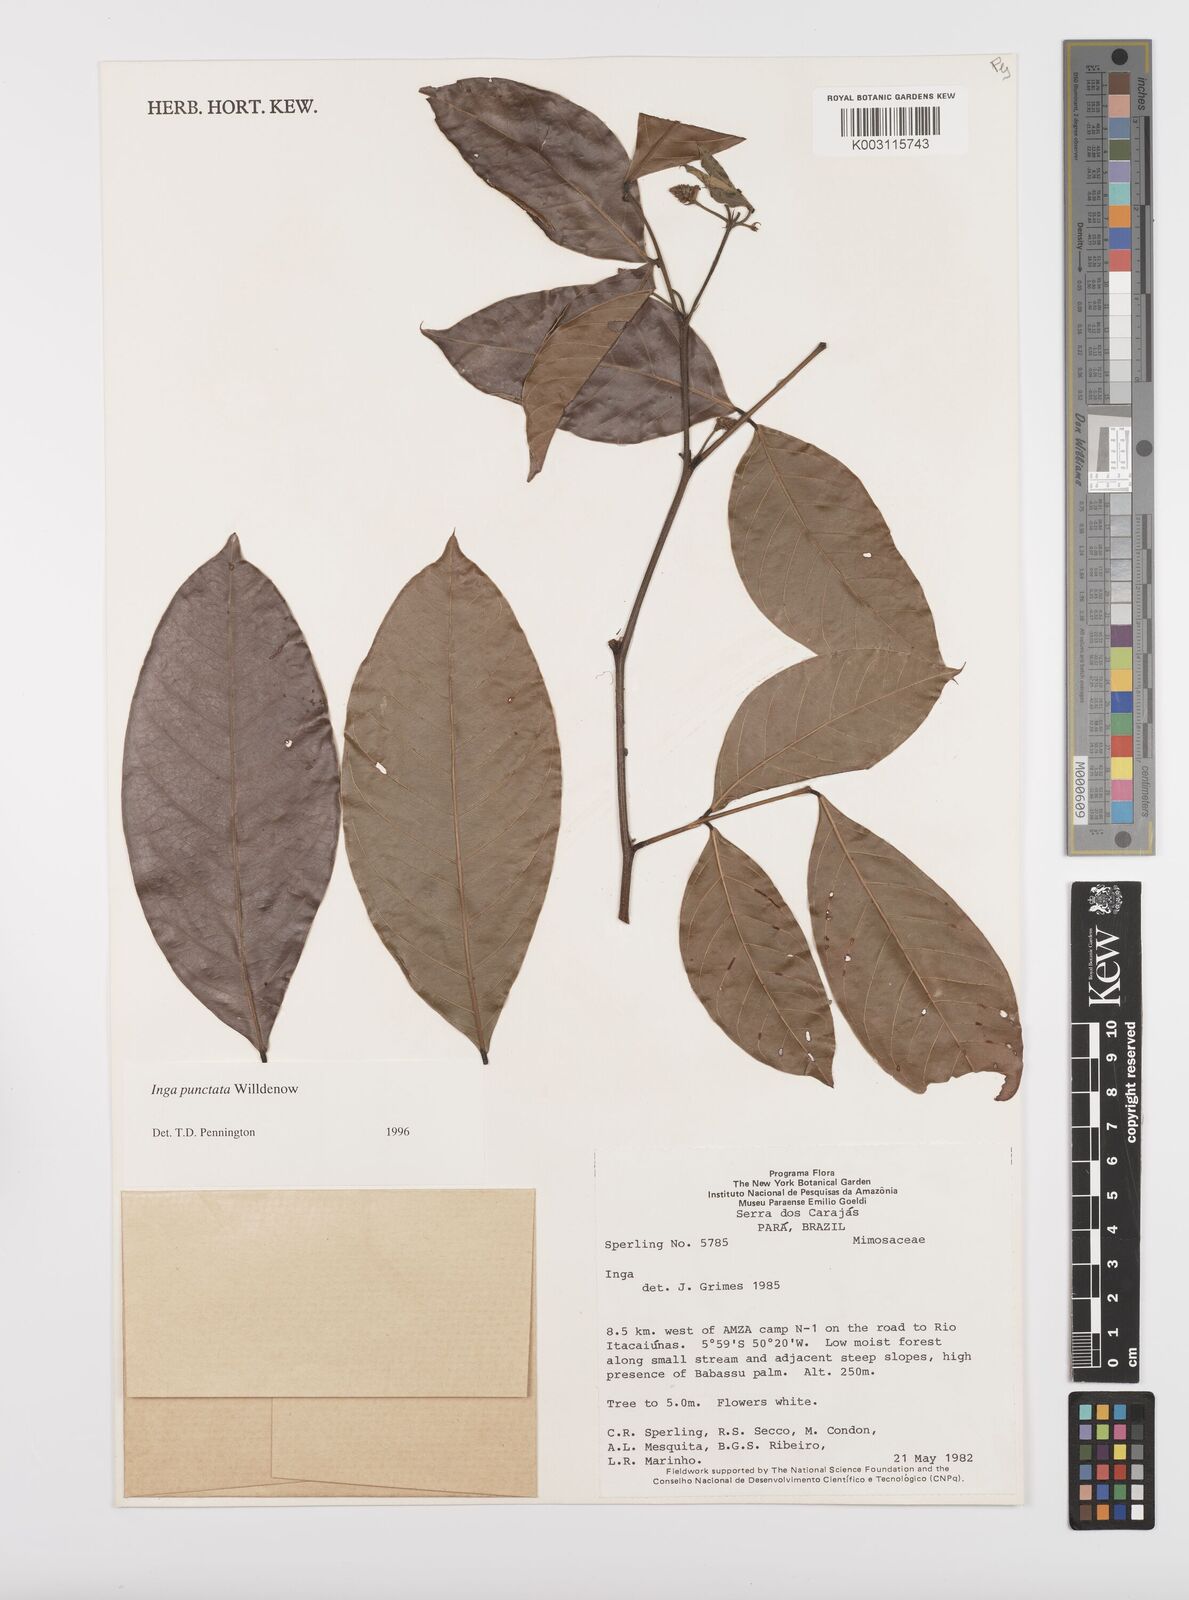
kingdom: Plantae
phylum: Tracheophyta
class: Magnoliopsida
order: Fabales
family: Fabaceae
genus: Inga
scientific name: Inga punctata
